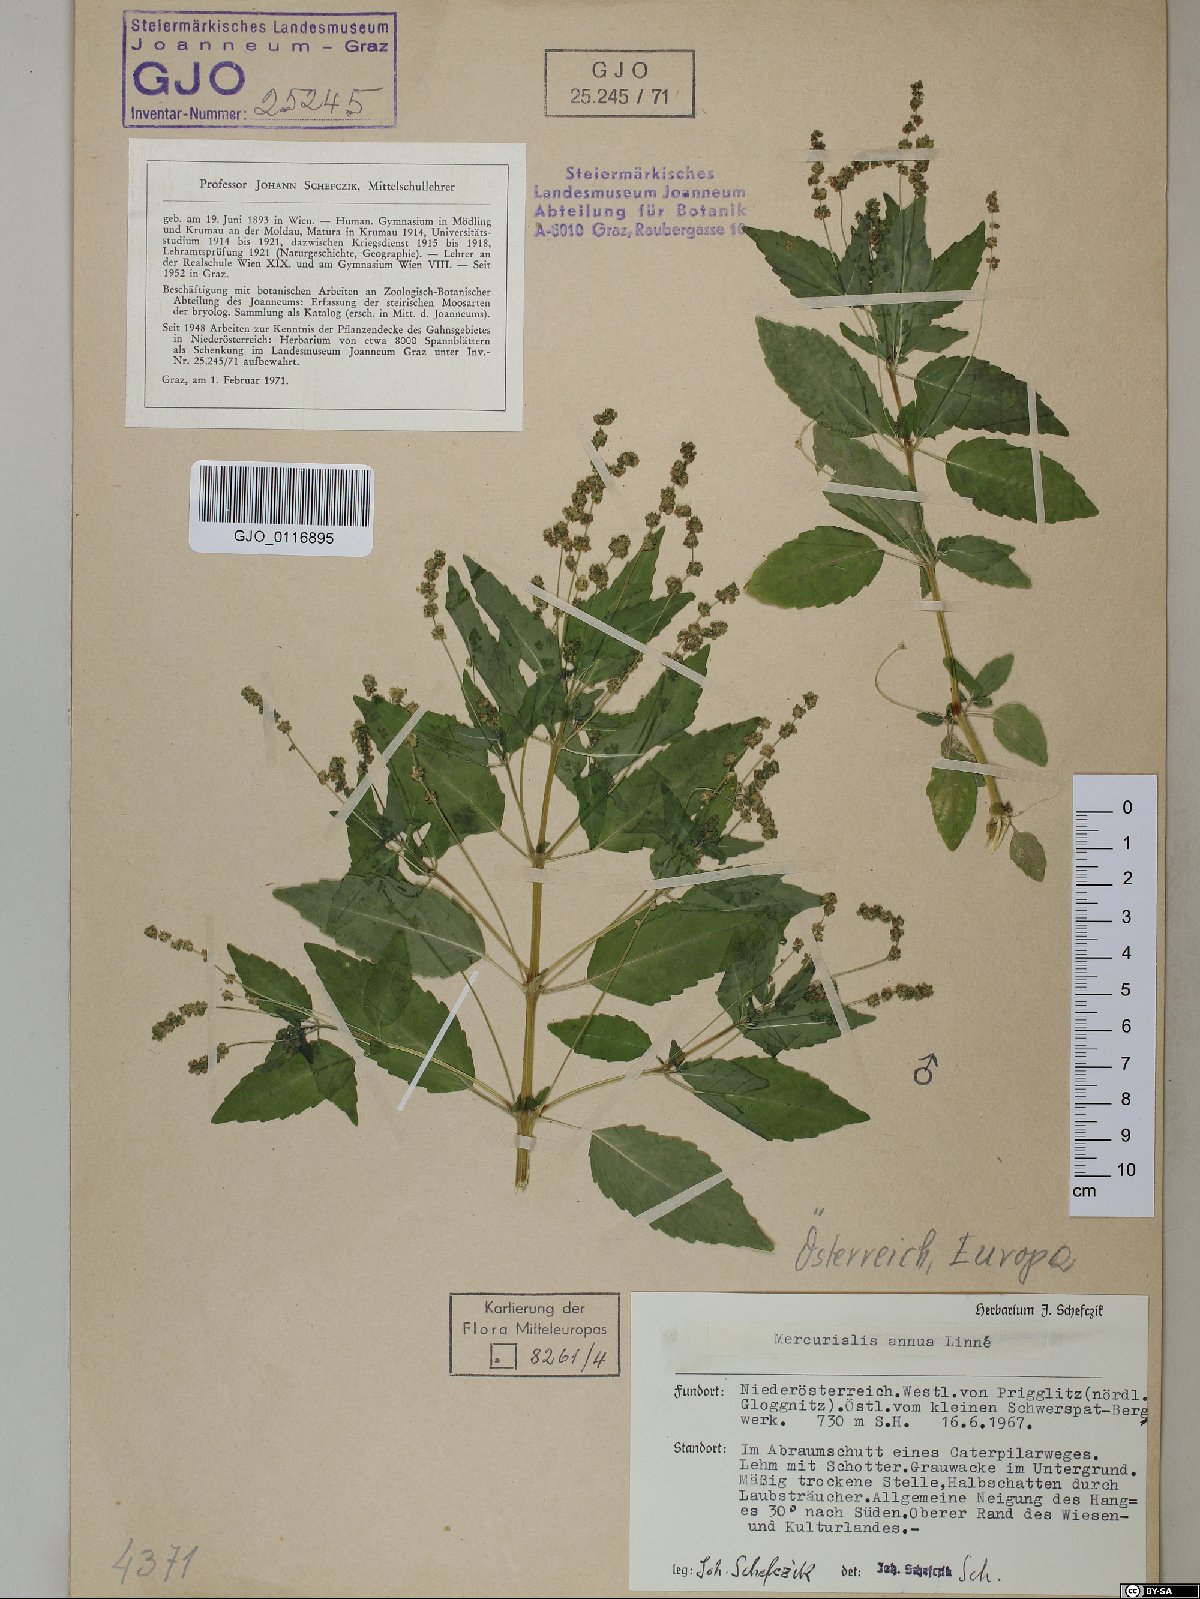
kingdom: Plantae
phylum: Tracheophyta
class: Magnoliopsida
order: Malpighiales
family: Euphorbiaceae
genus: Mercurialis
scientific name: Mercurialis annua
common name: Annual mercury
